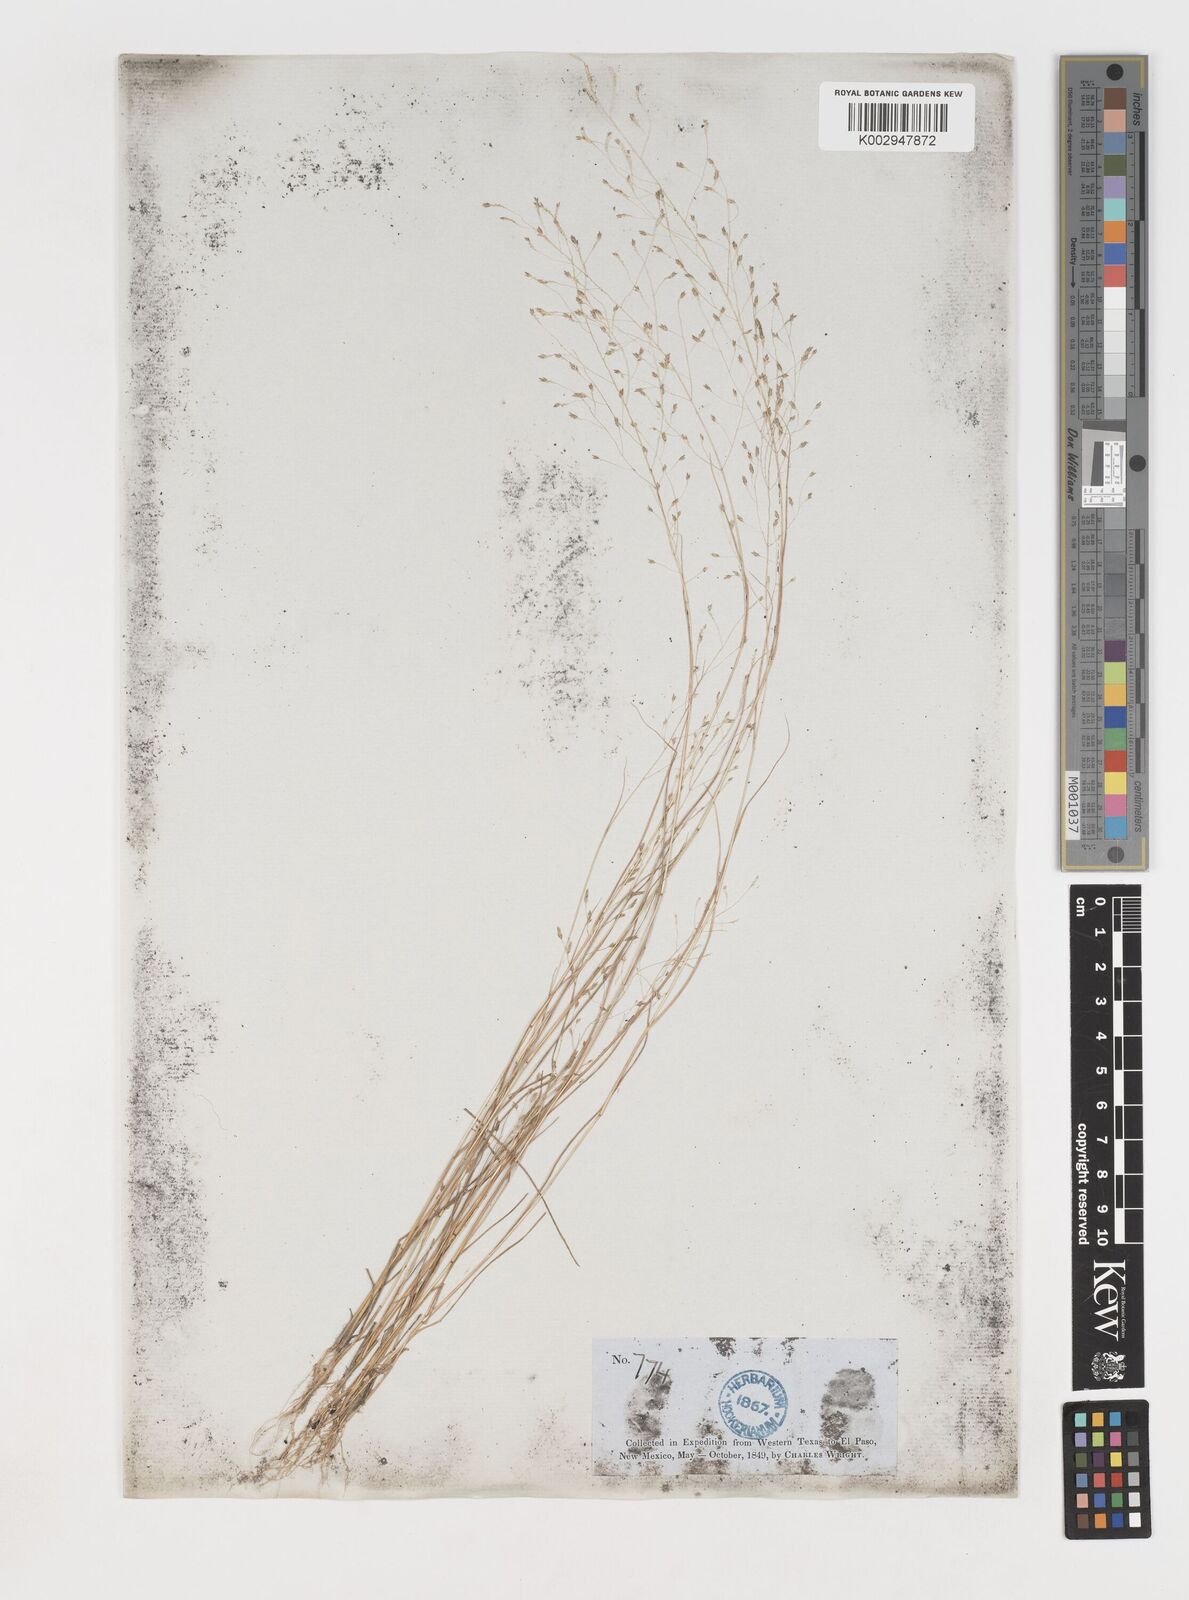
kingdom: Plantae
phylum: Tracheophyta
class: Liliopsida
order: Poales
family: Poaceae
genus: Eragrostis
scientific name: Eragrostis
